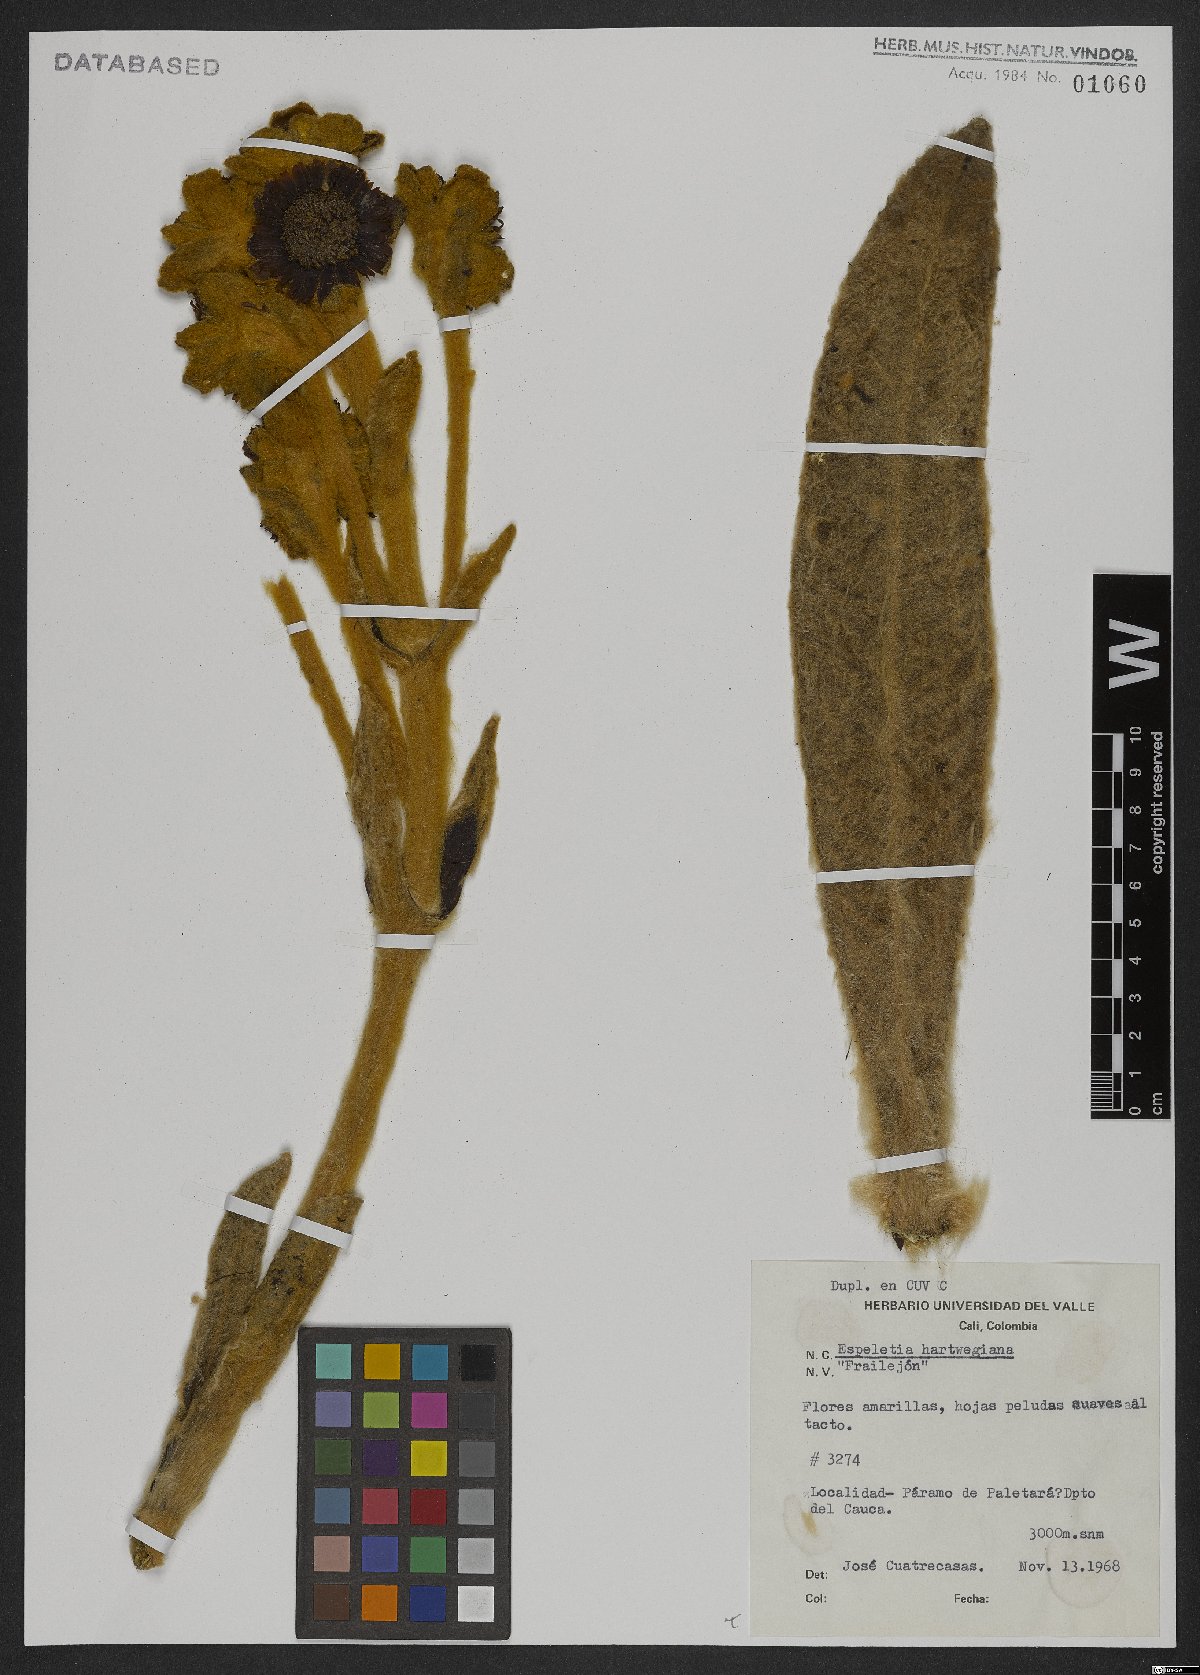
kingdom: Plantae
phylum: Tracheophyta
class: Magnoliopsida
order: Asterales
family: Asteraceae
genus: Espeletia
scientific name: Espeletia hartwegiana
